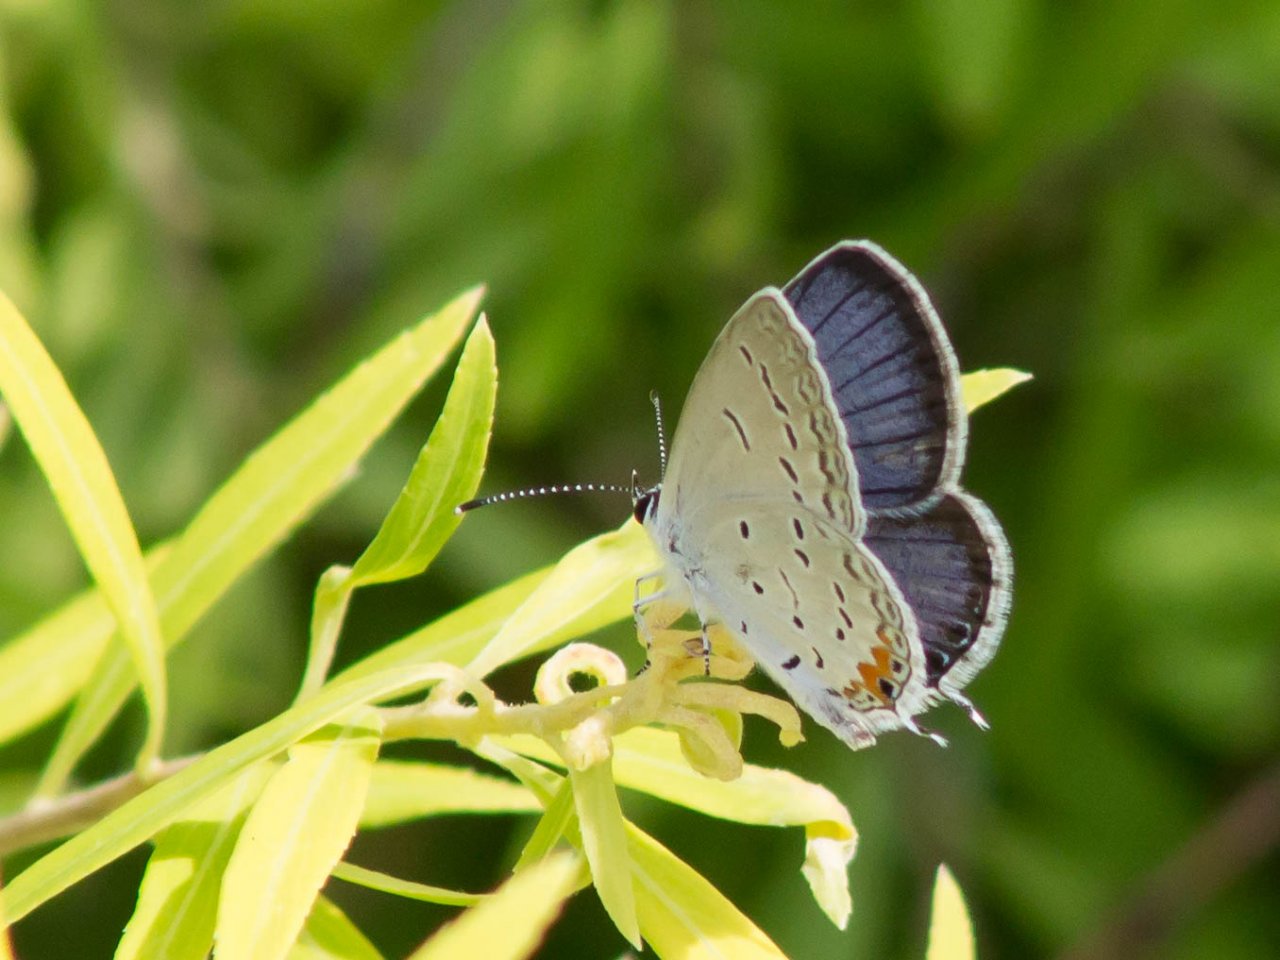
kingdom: Animalia
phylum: Arthropoda
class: Insecta
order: Lepidoptera
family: Lycaenidae
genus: Elkalyce
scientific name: Elkalyce comyntas
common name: Eastern Tailed-Blue
